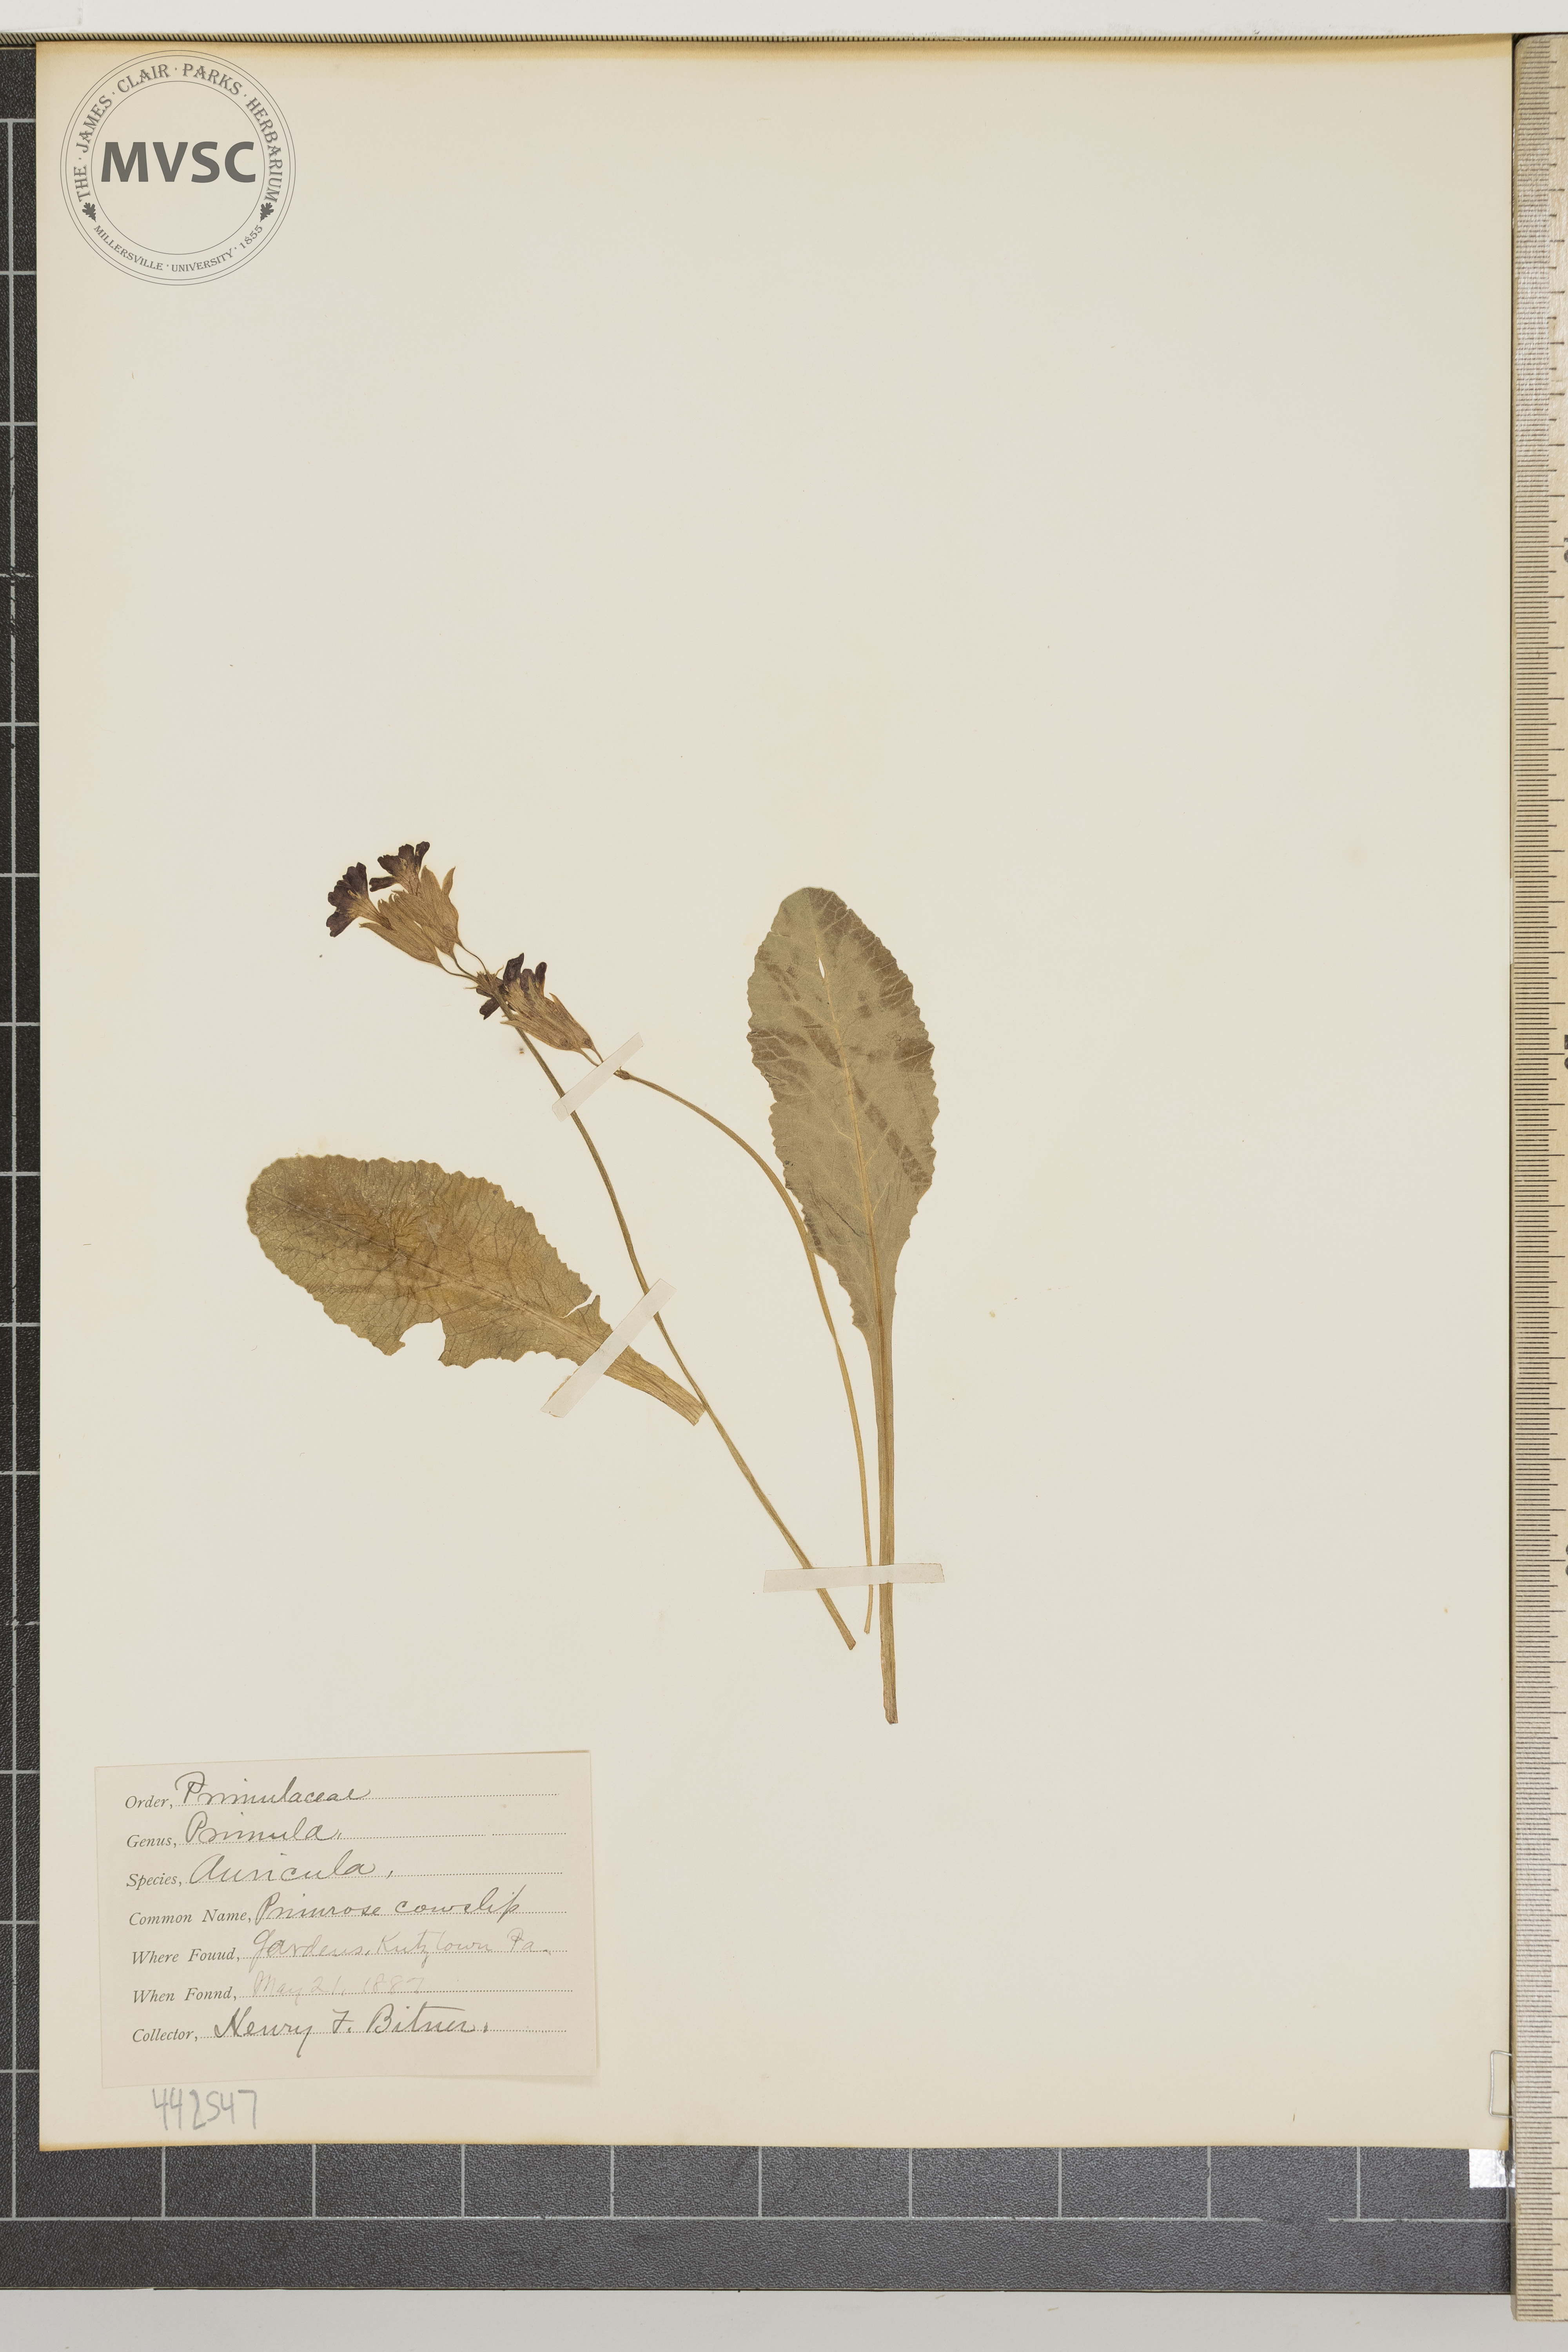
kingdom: Plantae
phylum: Tracheophyta
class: Magnoliopsida
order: Ericales
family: Primulaceae
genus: Primula
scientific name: Primula auricula
